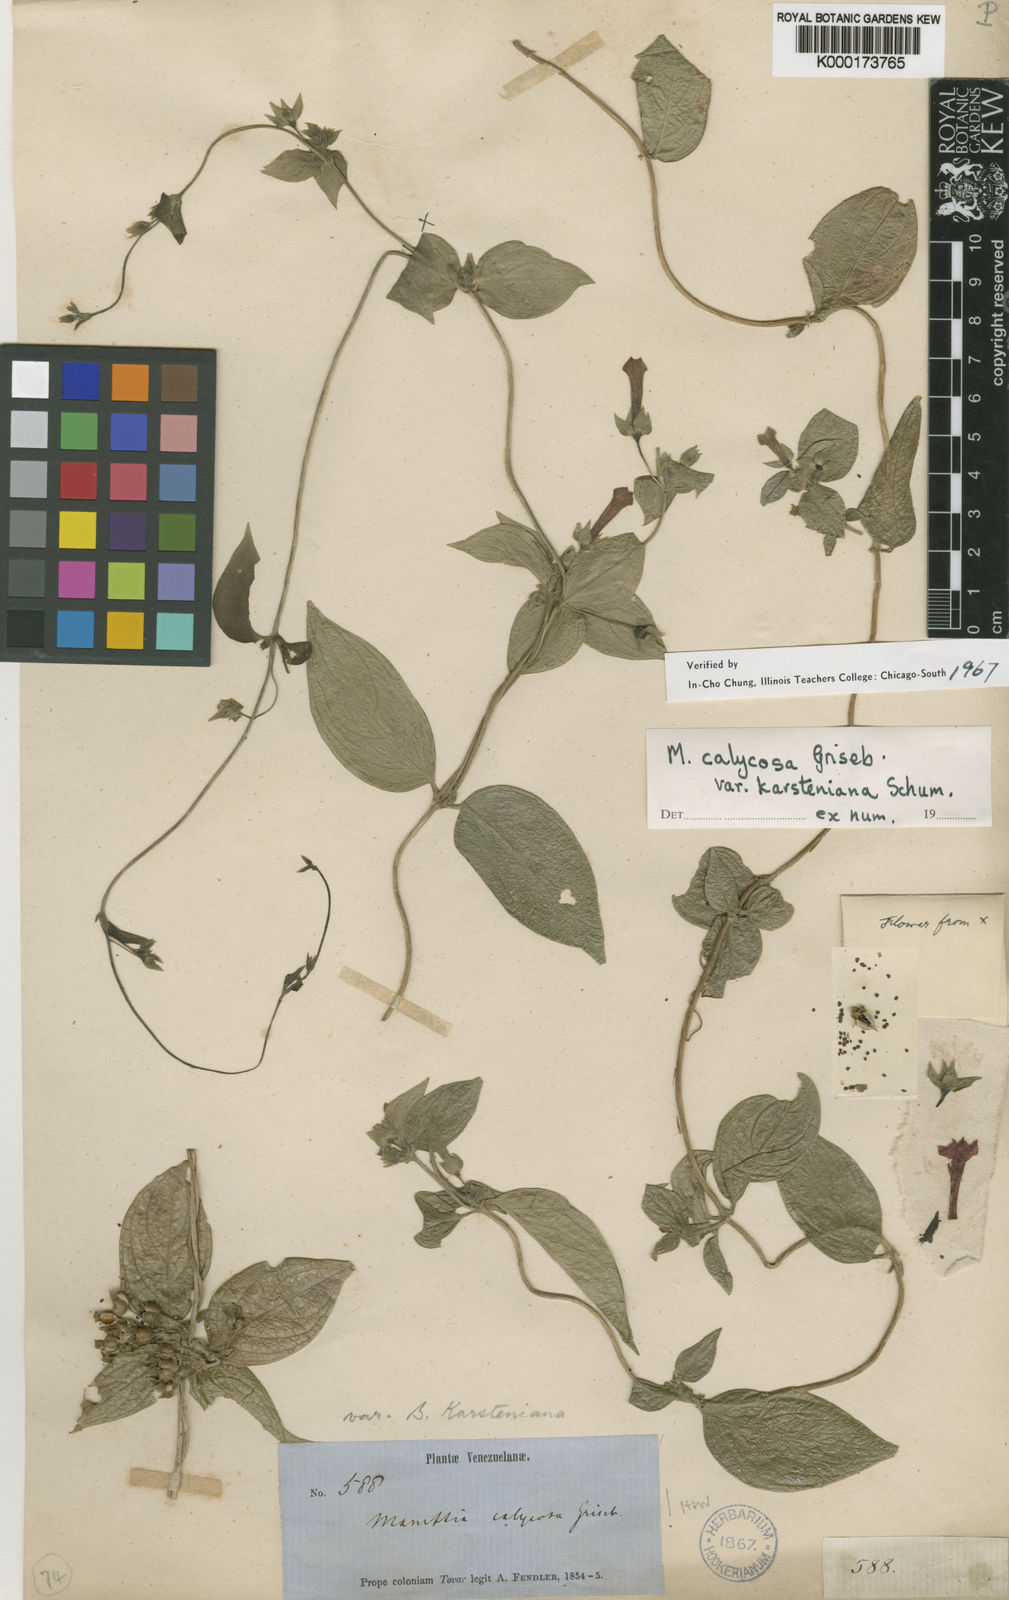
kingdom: Plantae
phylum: Tracheophyta
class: Magnoliopsida
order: Gentianales
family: Rubiaceae
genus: Manettia
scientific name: Manettia calycosa
